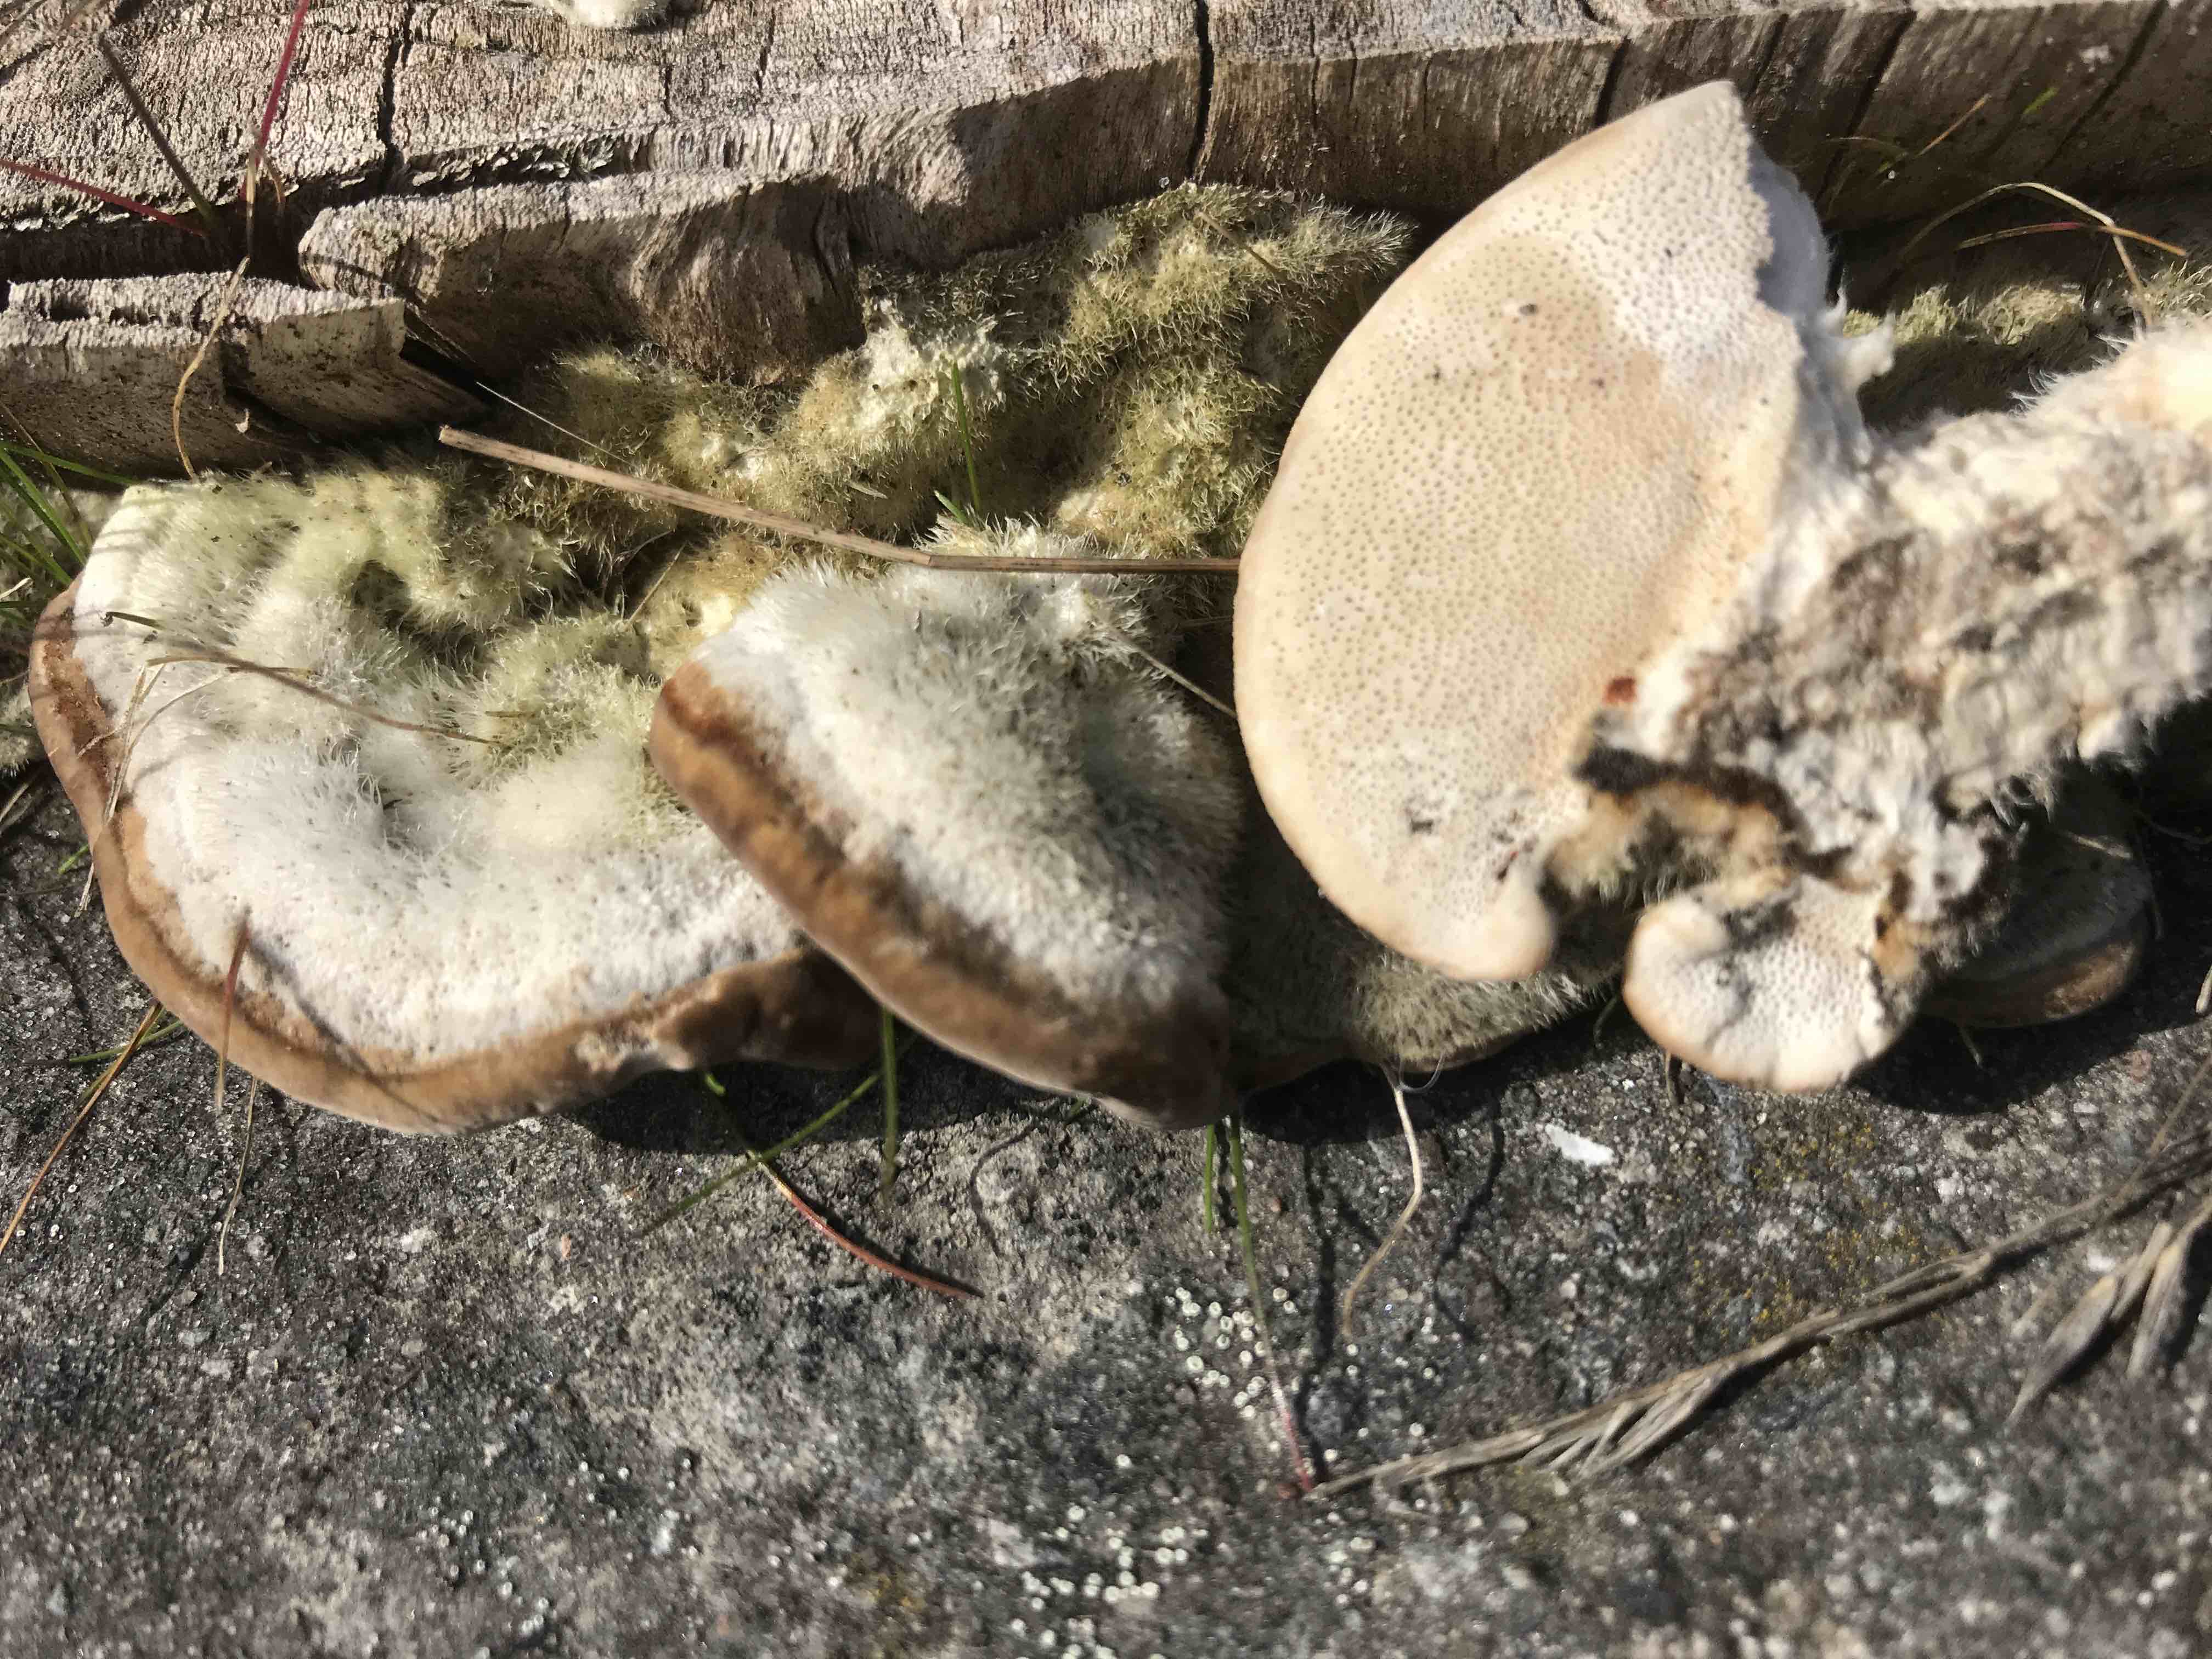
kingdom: Fungi
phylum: Basidiomycota
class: Agaricomycetes
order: Polyporales
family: Polyporaceae
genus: Trametes
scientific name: Trametes hirsuta
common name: håret læderporesvamp
